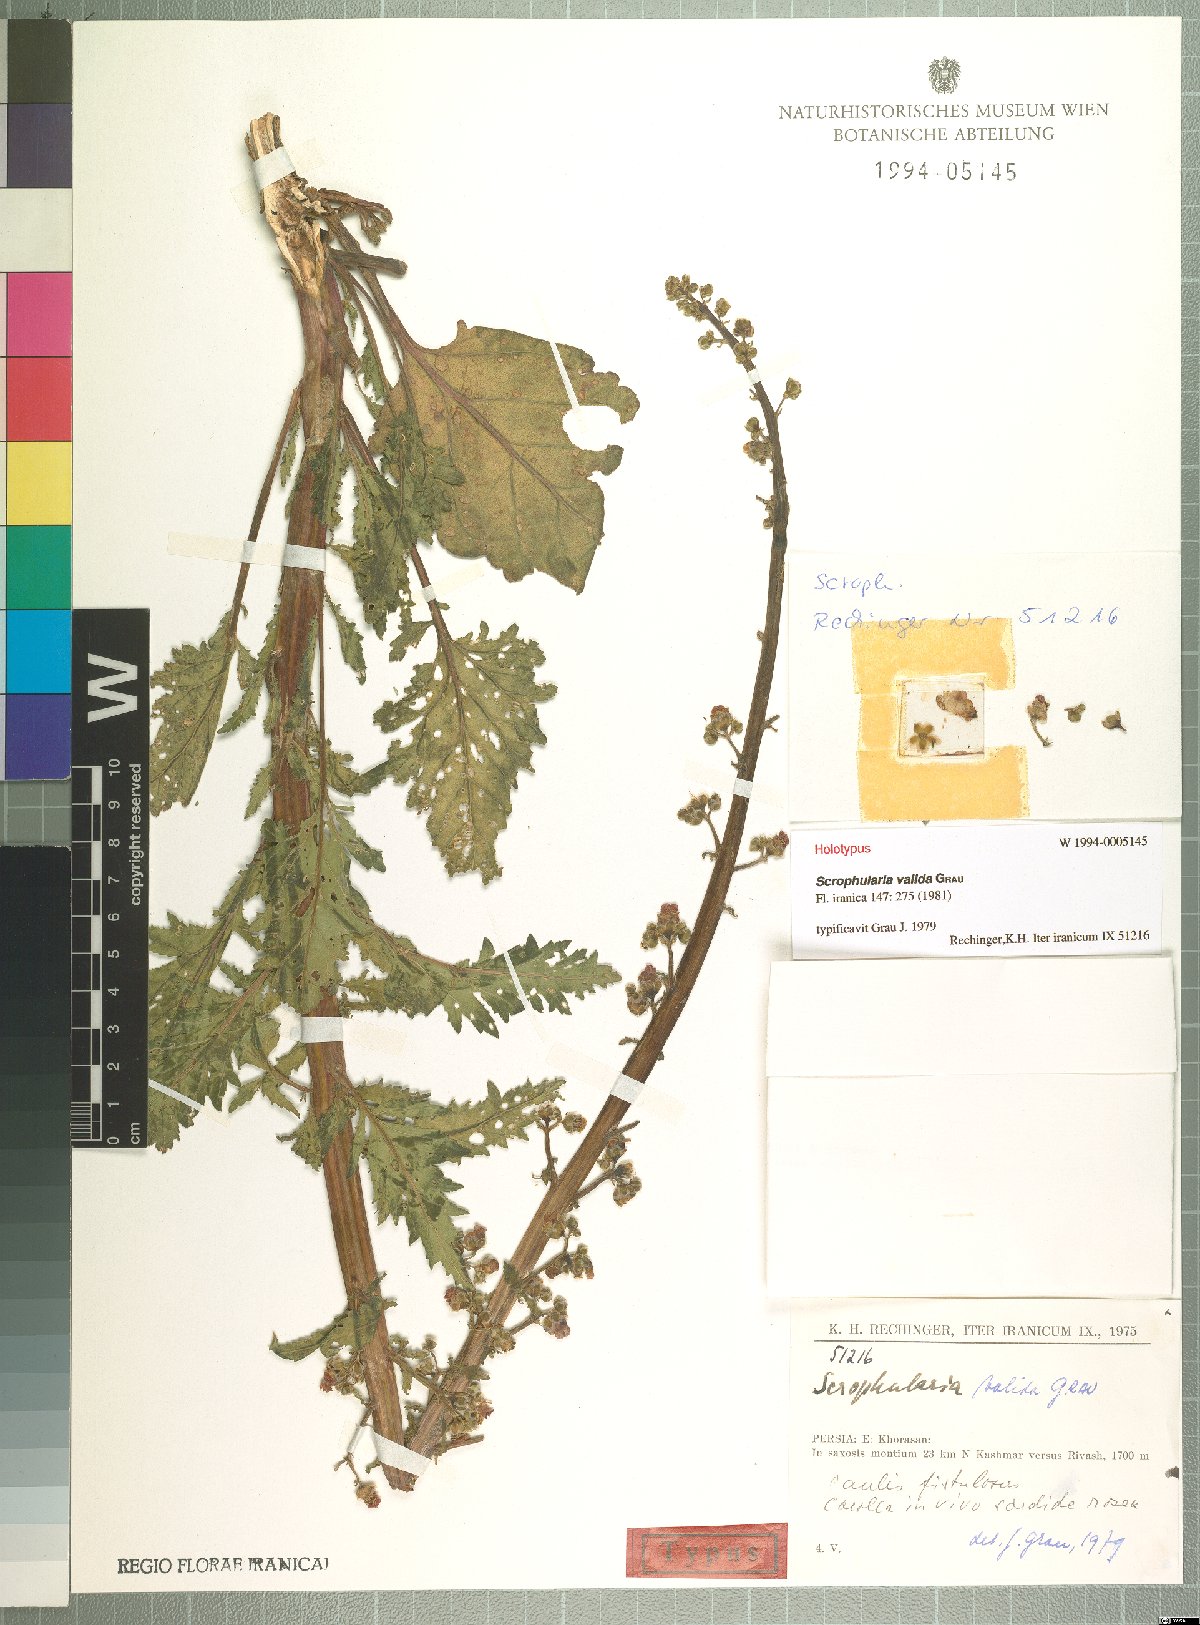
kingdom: Plantae
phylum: Tracheophyta
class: Magnoliopsida
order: Lamiales
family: Scrophulariaceae
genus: Scrophularia
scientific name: Scrophularia valida
